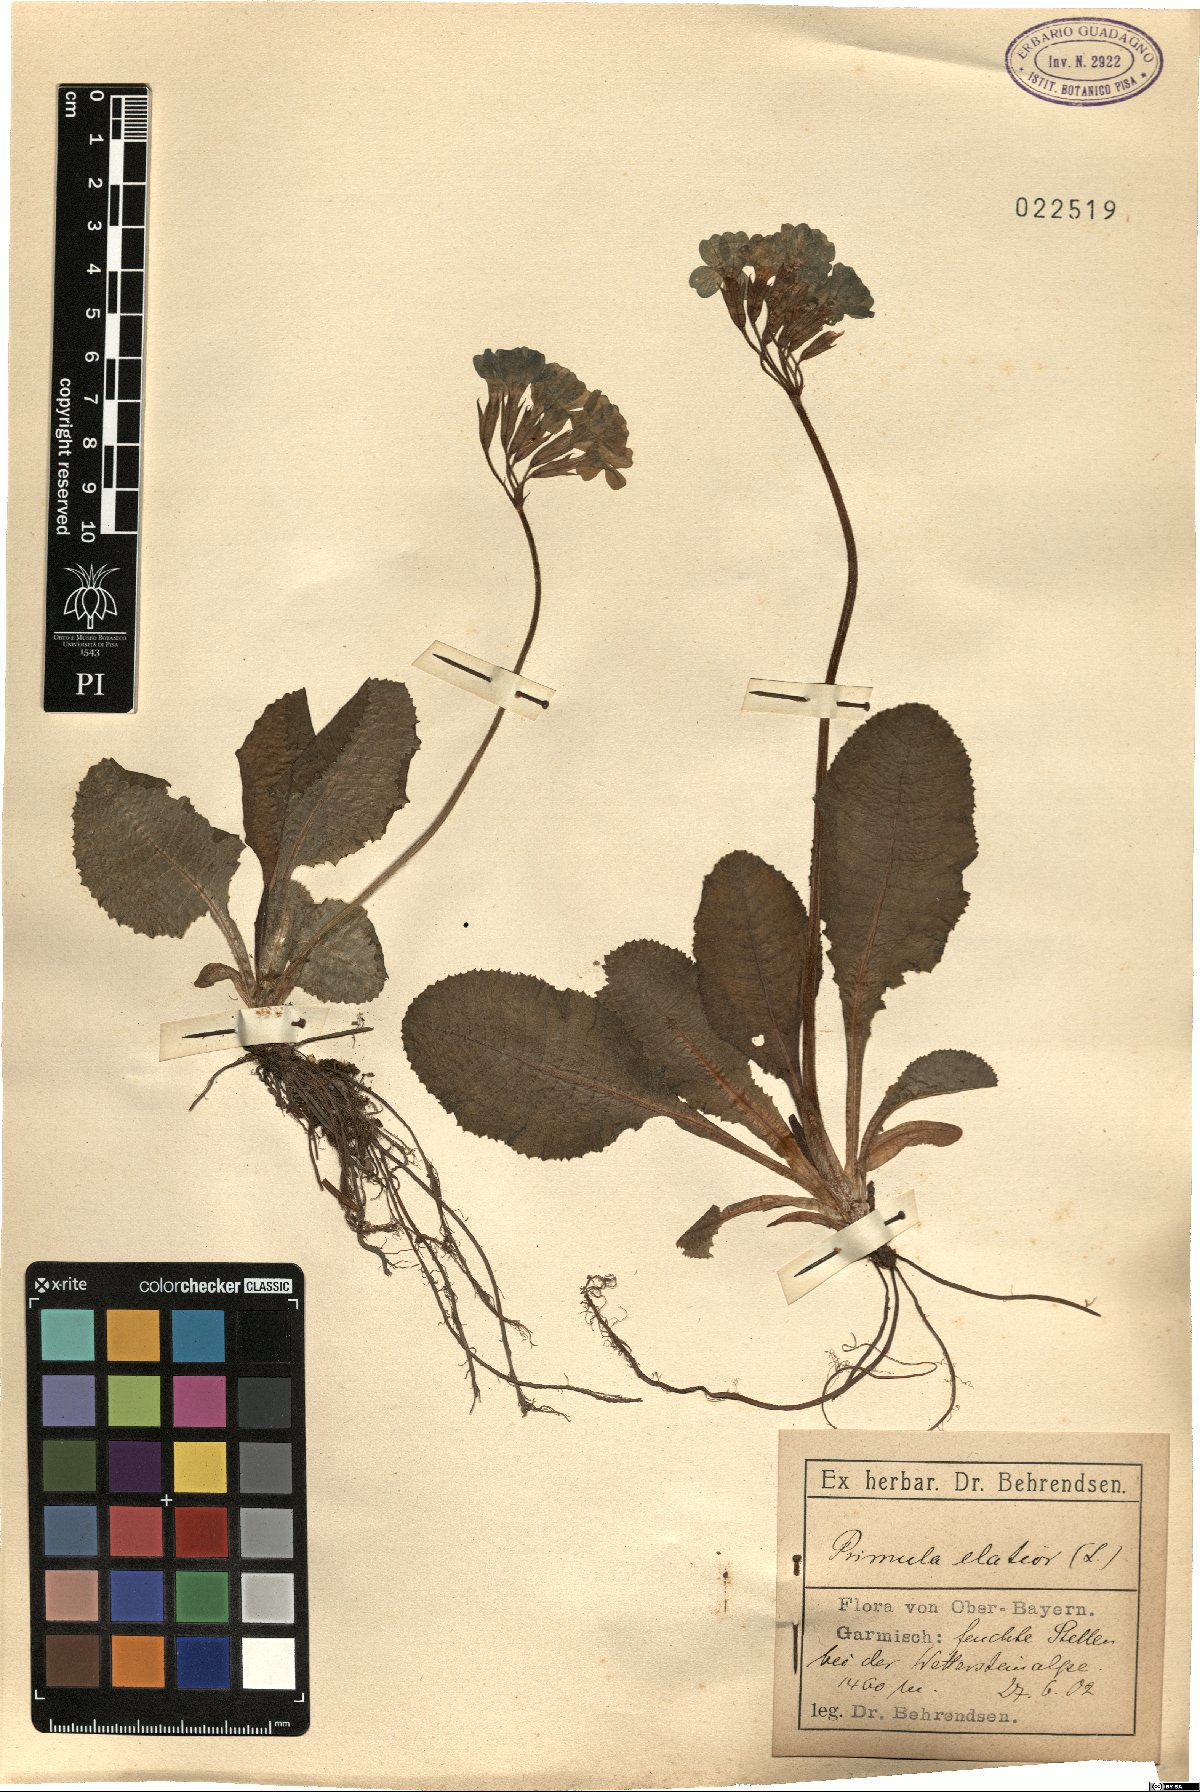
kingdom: Plantae
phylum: Tracheophyta
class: Magnoliopsida
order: Ericales
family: Primulaceae
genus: Primula
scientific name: Primula elatior
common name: Oxlip
